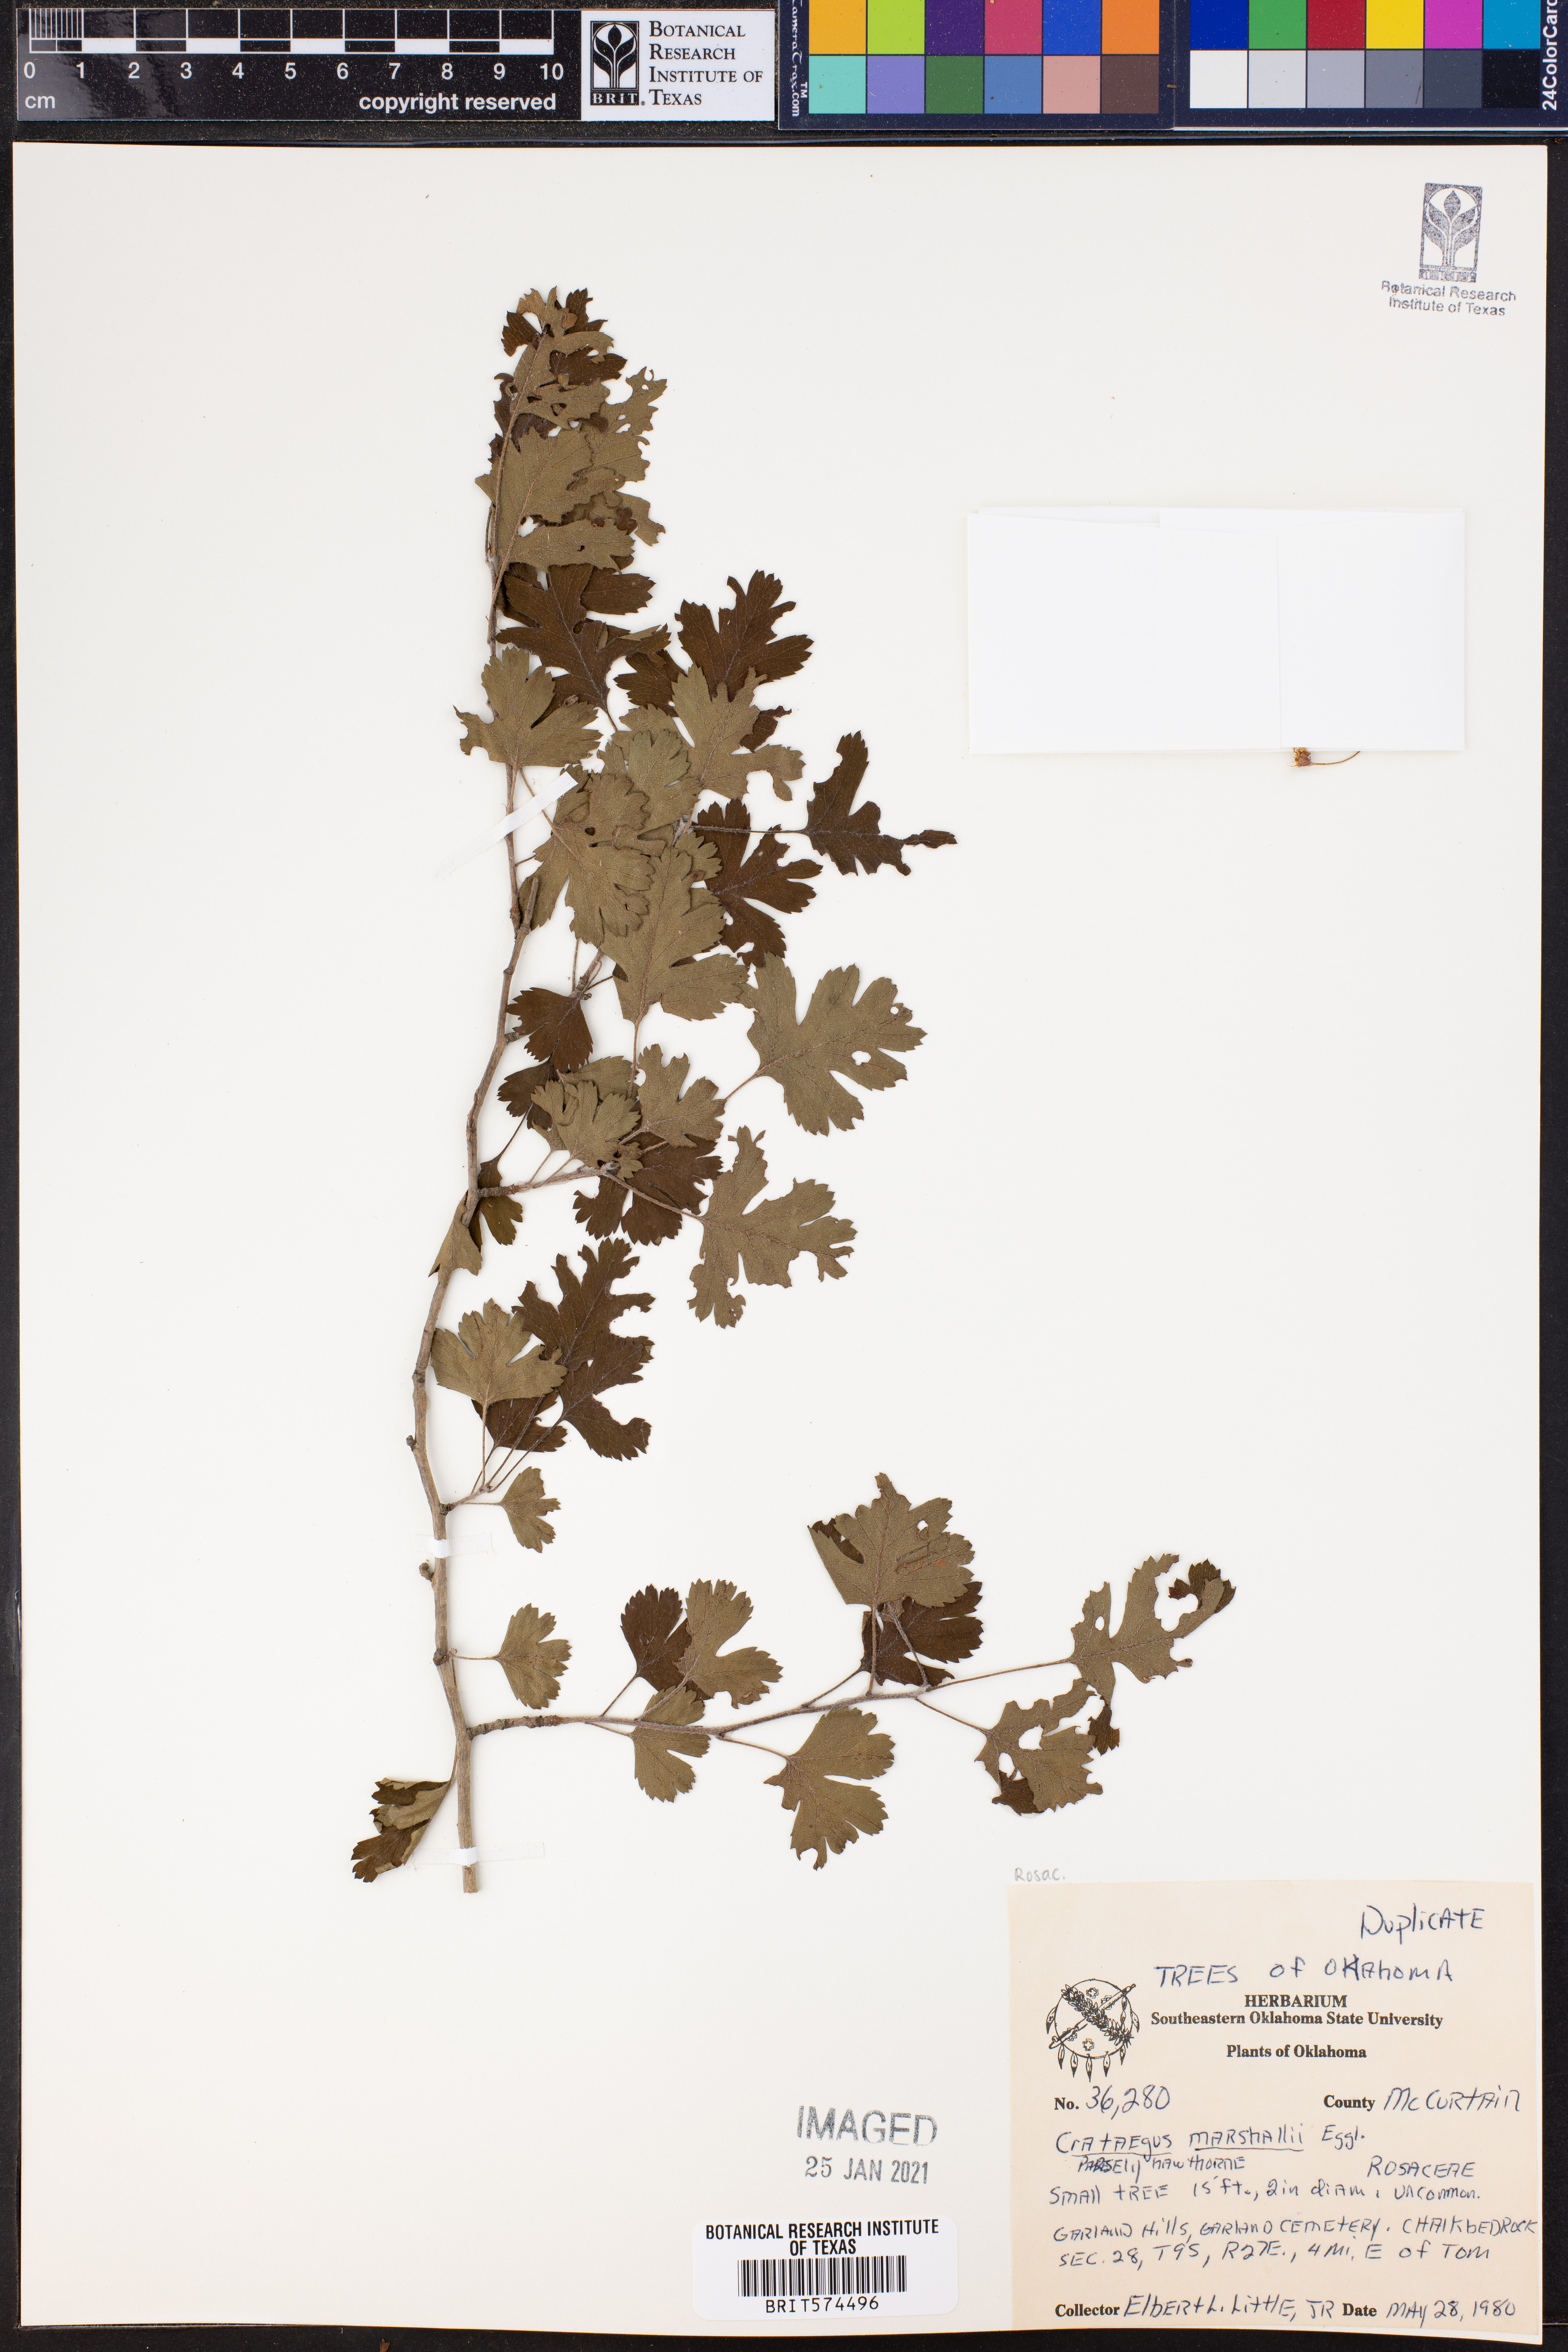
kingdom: Plantae
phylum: Tracheophyta
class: Magnoliopsida
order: Rosales
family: Rosaceae
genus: Crataegus
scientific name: Crataegus marshallii
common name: Parsley-hawthorn
